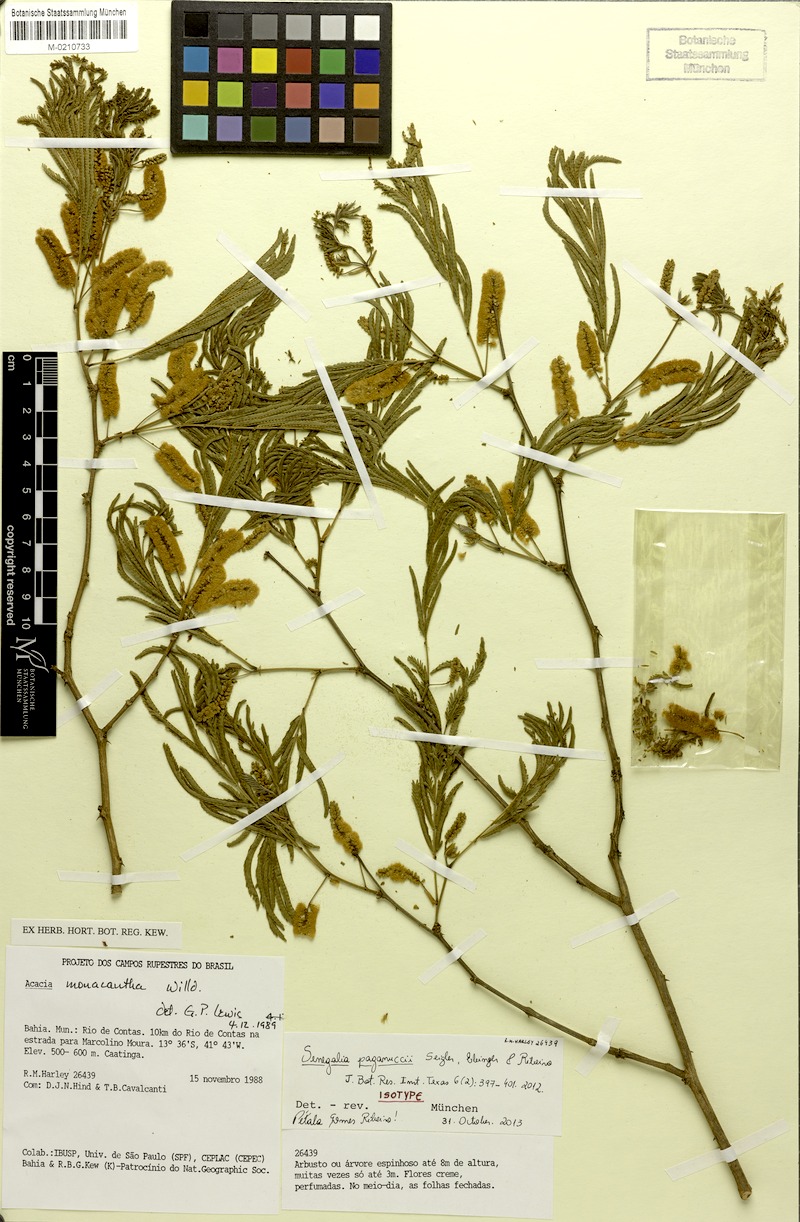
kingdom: Plantae
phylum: Tracheophyta
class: Magnoliopsida
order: Fabales
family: Fabaceae
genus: Senegalia
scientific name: Senegalia paganuccii
